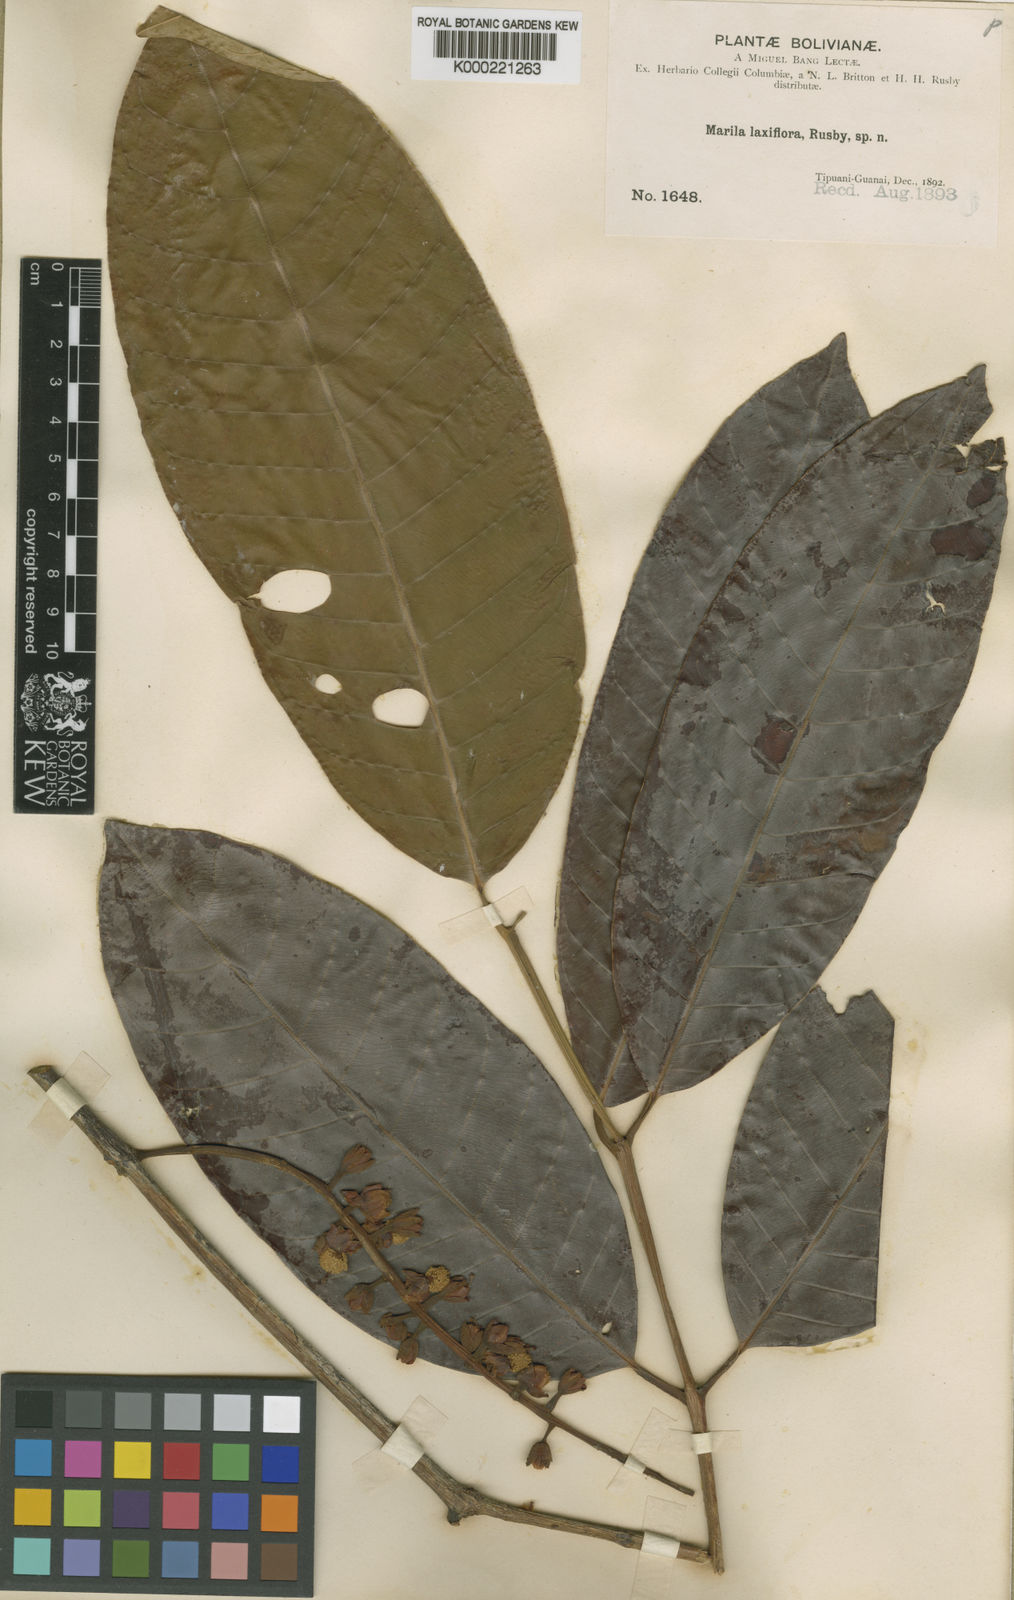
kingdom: Plantae
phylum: Tracheophyta
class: Magnoliopsida
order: Malpighiales
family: Calophyllaceae
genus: Marila
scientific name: Marila laxiflora
